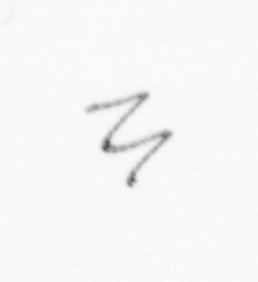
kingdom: Chromista
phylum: Ochrophyta
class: Bacillariophyceae
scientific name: Bacillariophyceae
